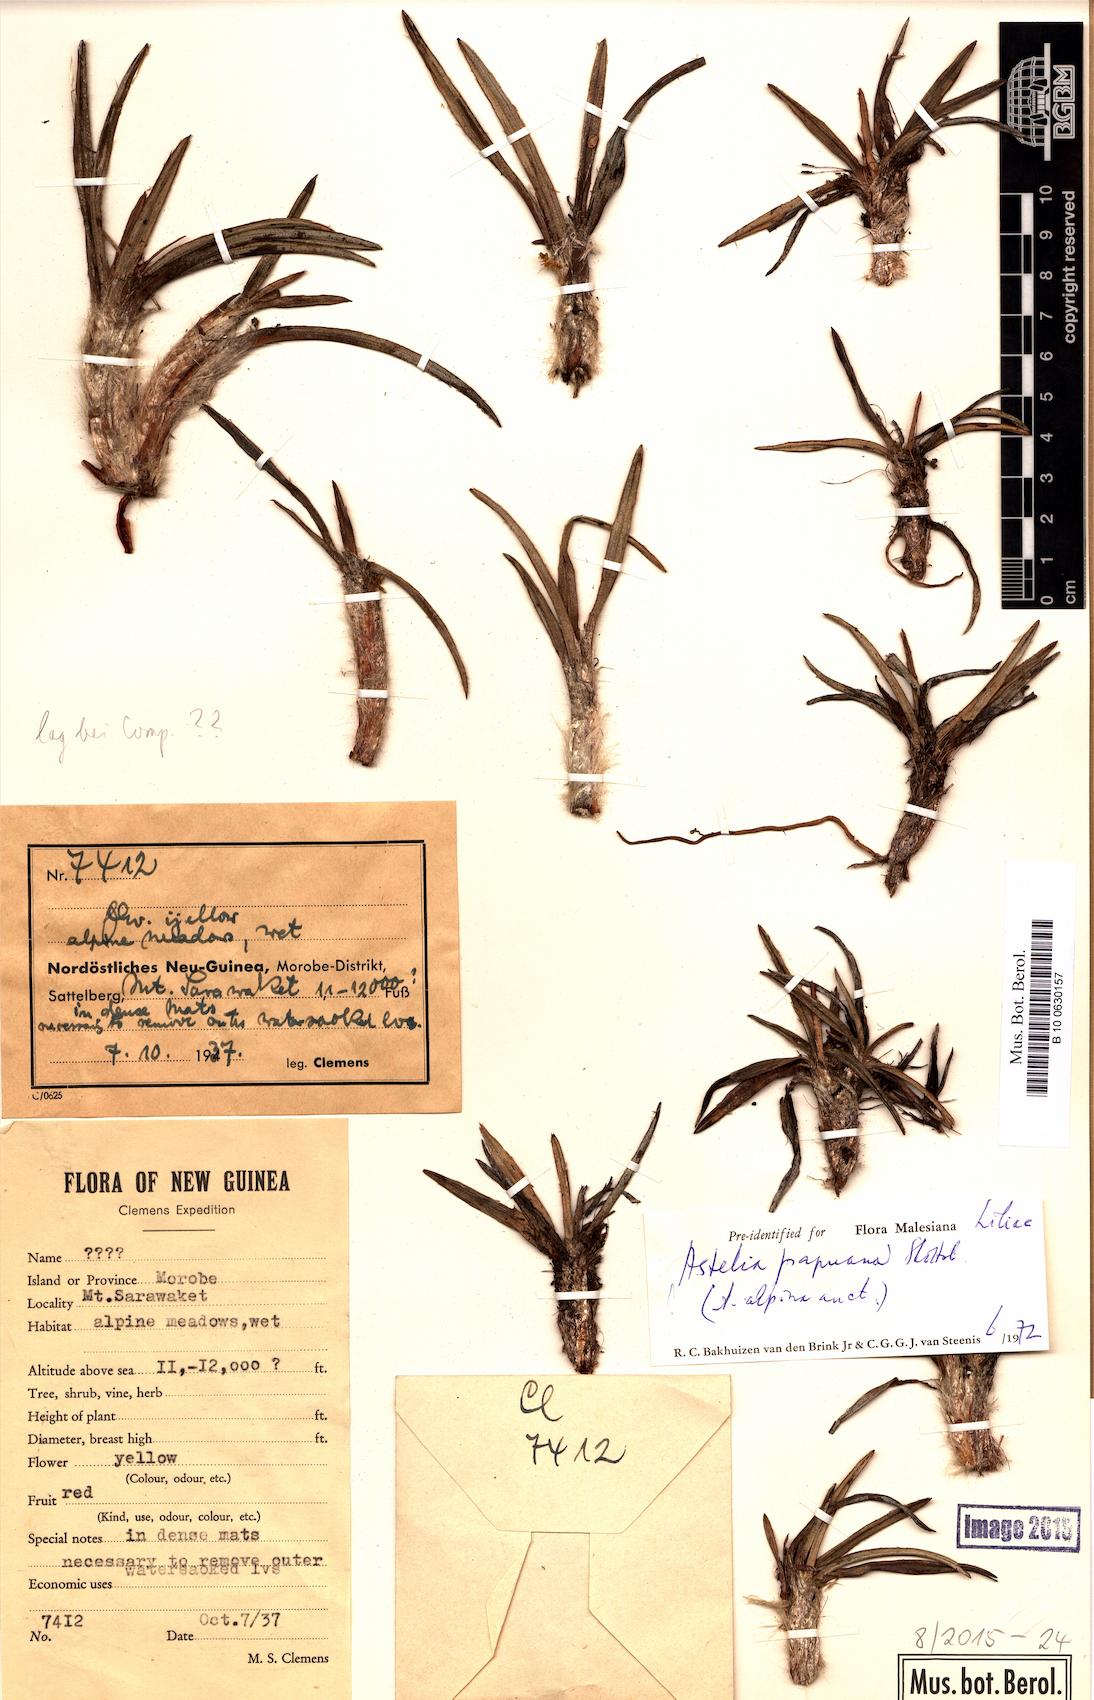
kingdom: Plantae
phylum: Tracheophyta
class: Liliopsida
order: Asparagales
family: Asteliaceae
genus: Astelia
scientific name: Astelia papuana
